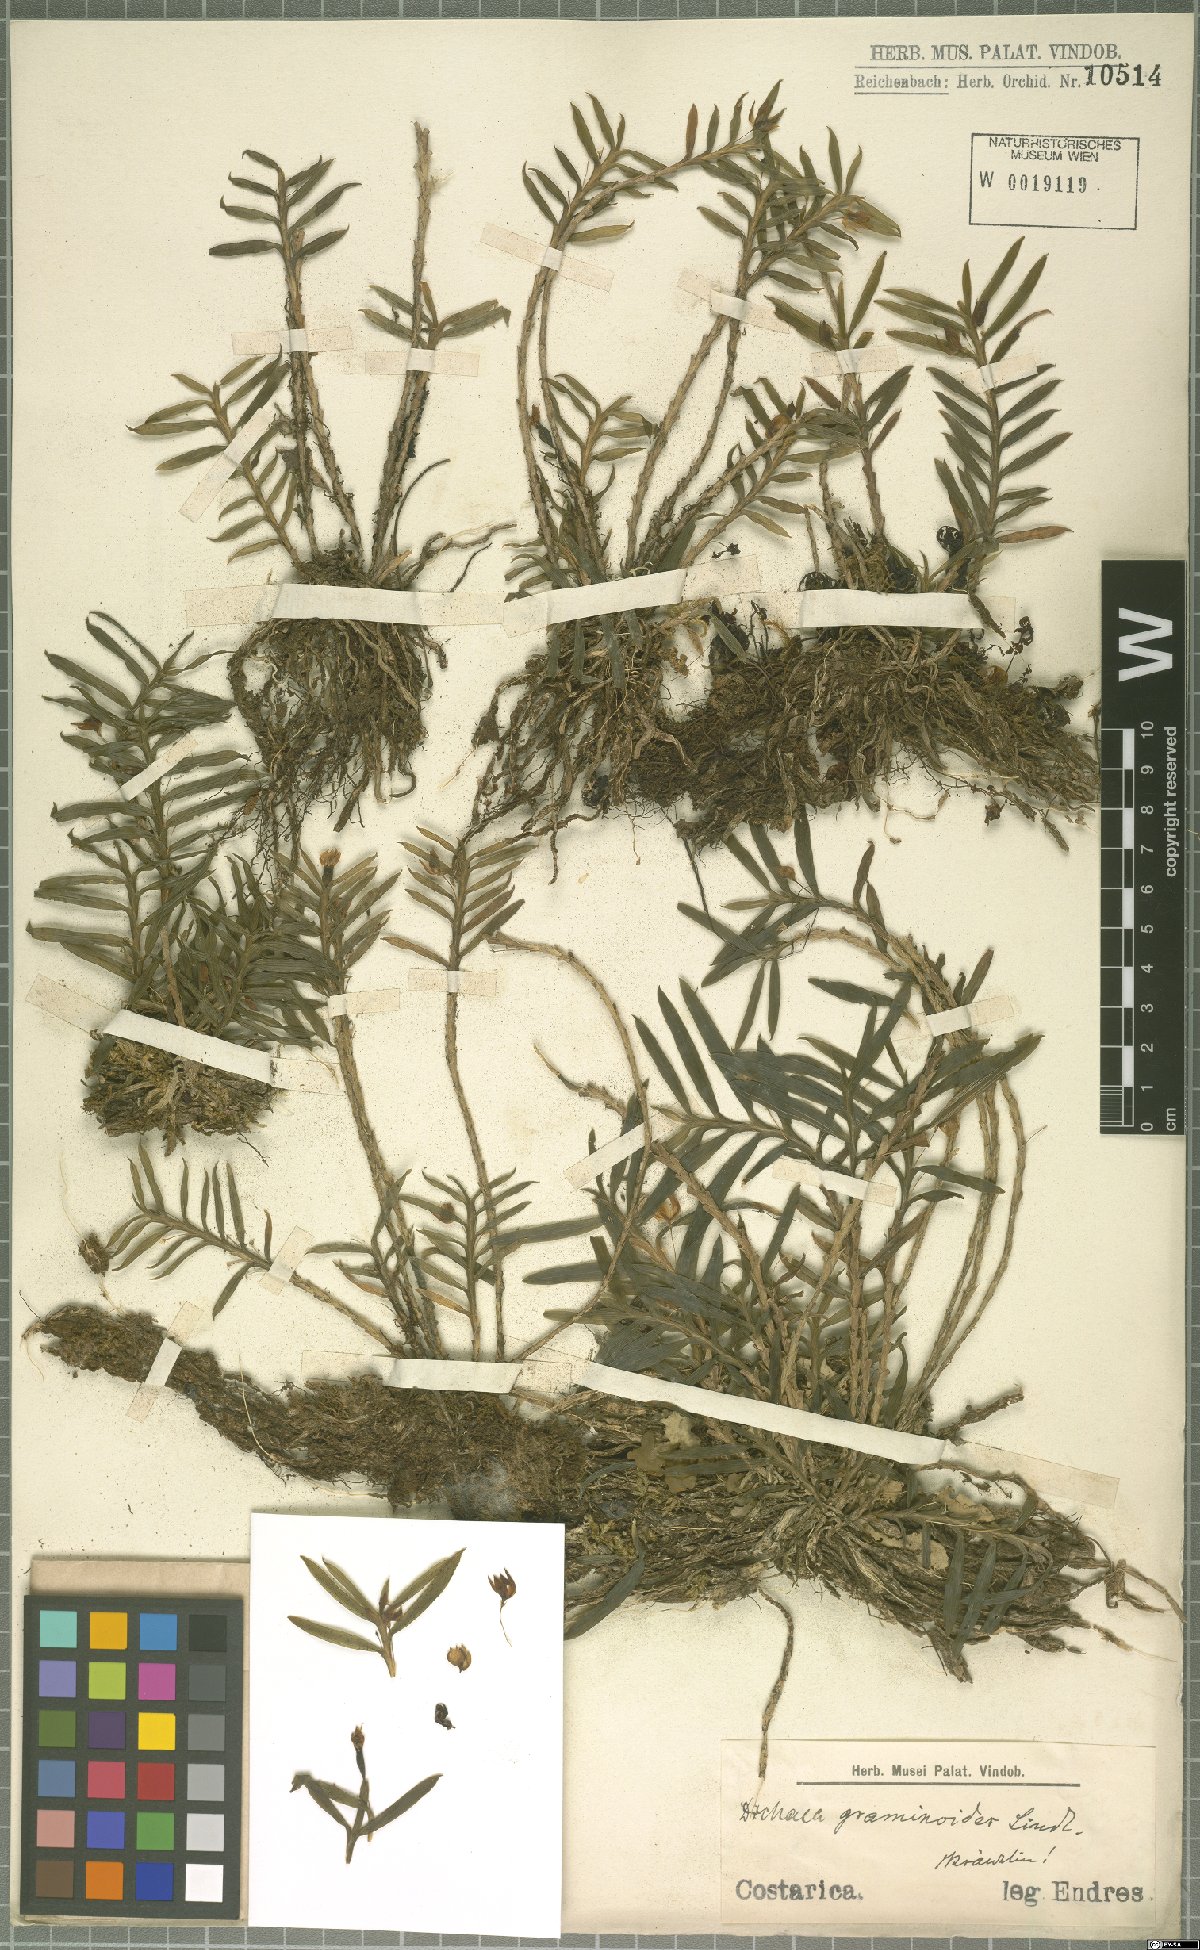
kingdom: Plantae
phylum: Tracheophyta
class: Liliopsida
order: Asparagales
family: Orchidaceae
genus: Dichaea
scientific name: Dichaea graminoides
